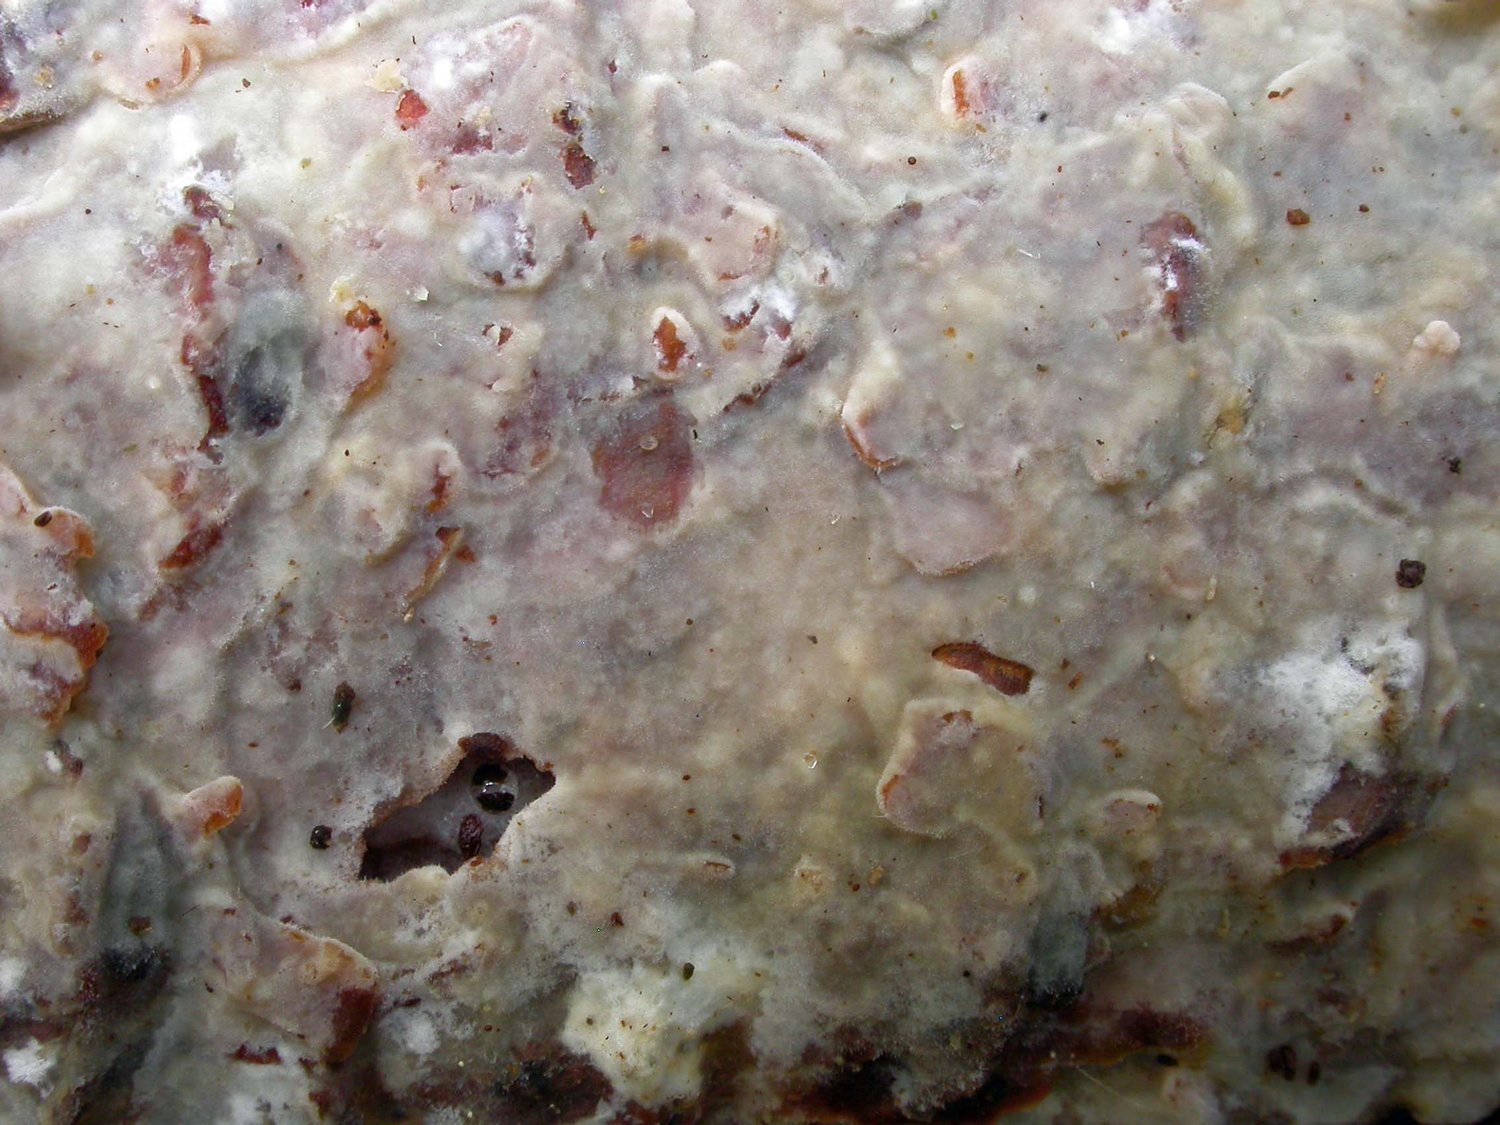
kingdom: Fungi
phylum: Basidiomycota
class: Agaricomycetes
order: Polyporales
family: Phanerochaetaceae
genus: Phanerochaete
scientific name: Phanerochaete velutina
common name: dunet randtråd
